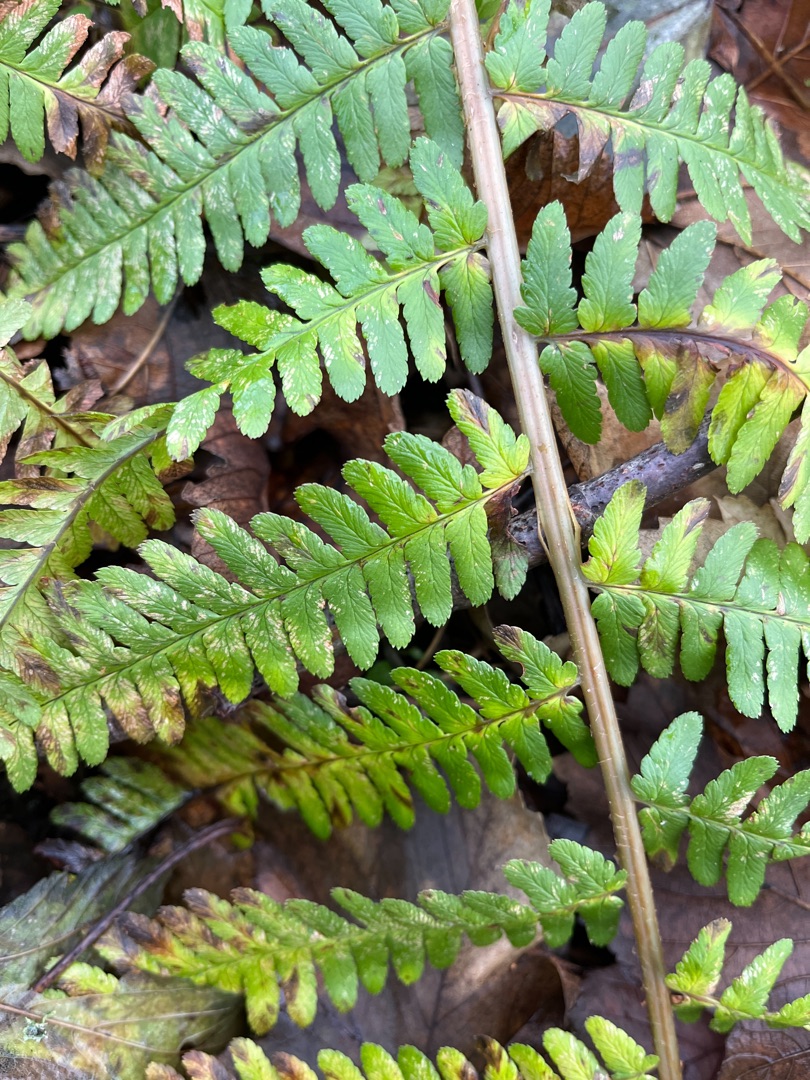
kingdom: Plantae
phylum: Tracheophyta
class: Polypodiopsida
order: Polypodiales
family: Dryopteridaceae
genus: Dryopteris
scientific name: Dryopteris filix-mas
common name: Almindelig mangeløv
